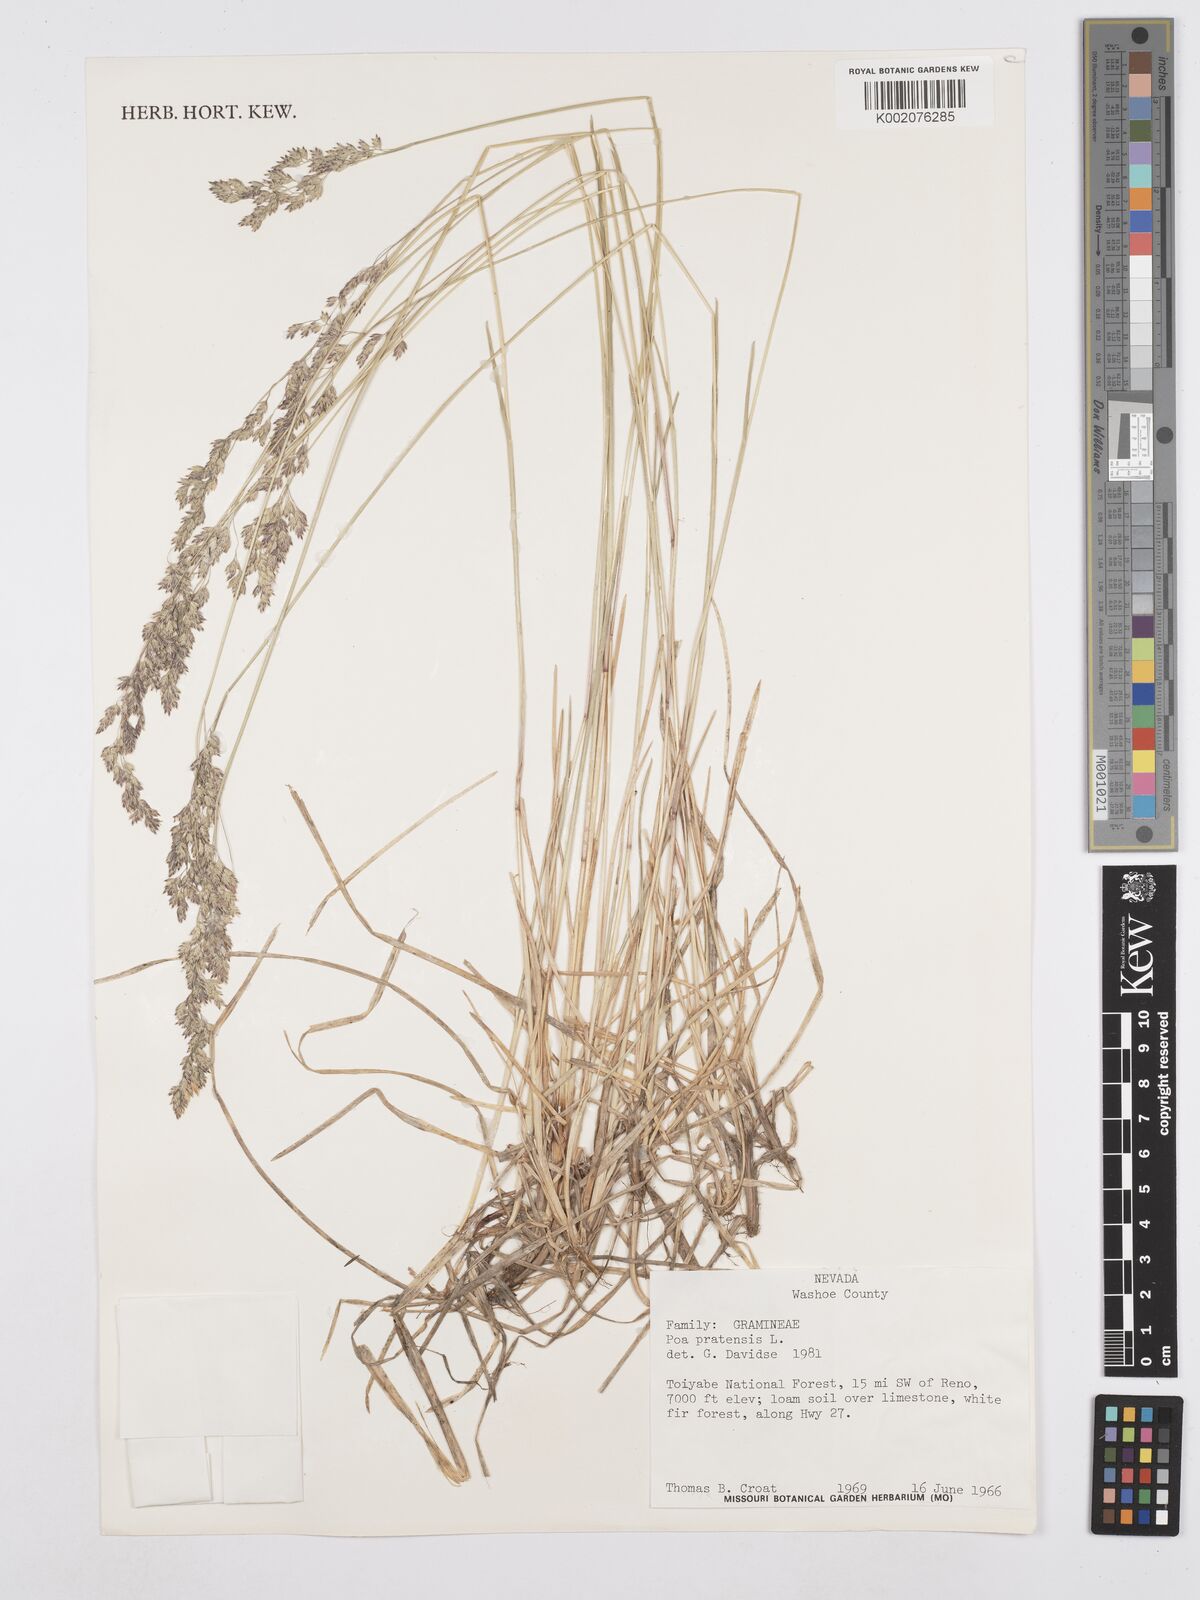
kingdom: Plantae
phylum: Tracheophyta
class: Liliopsida
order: Poales
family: Poaceae
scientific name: Poaceae
